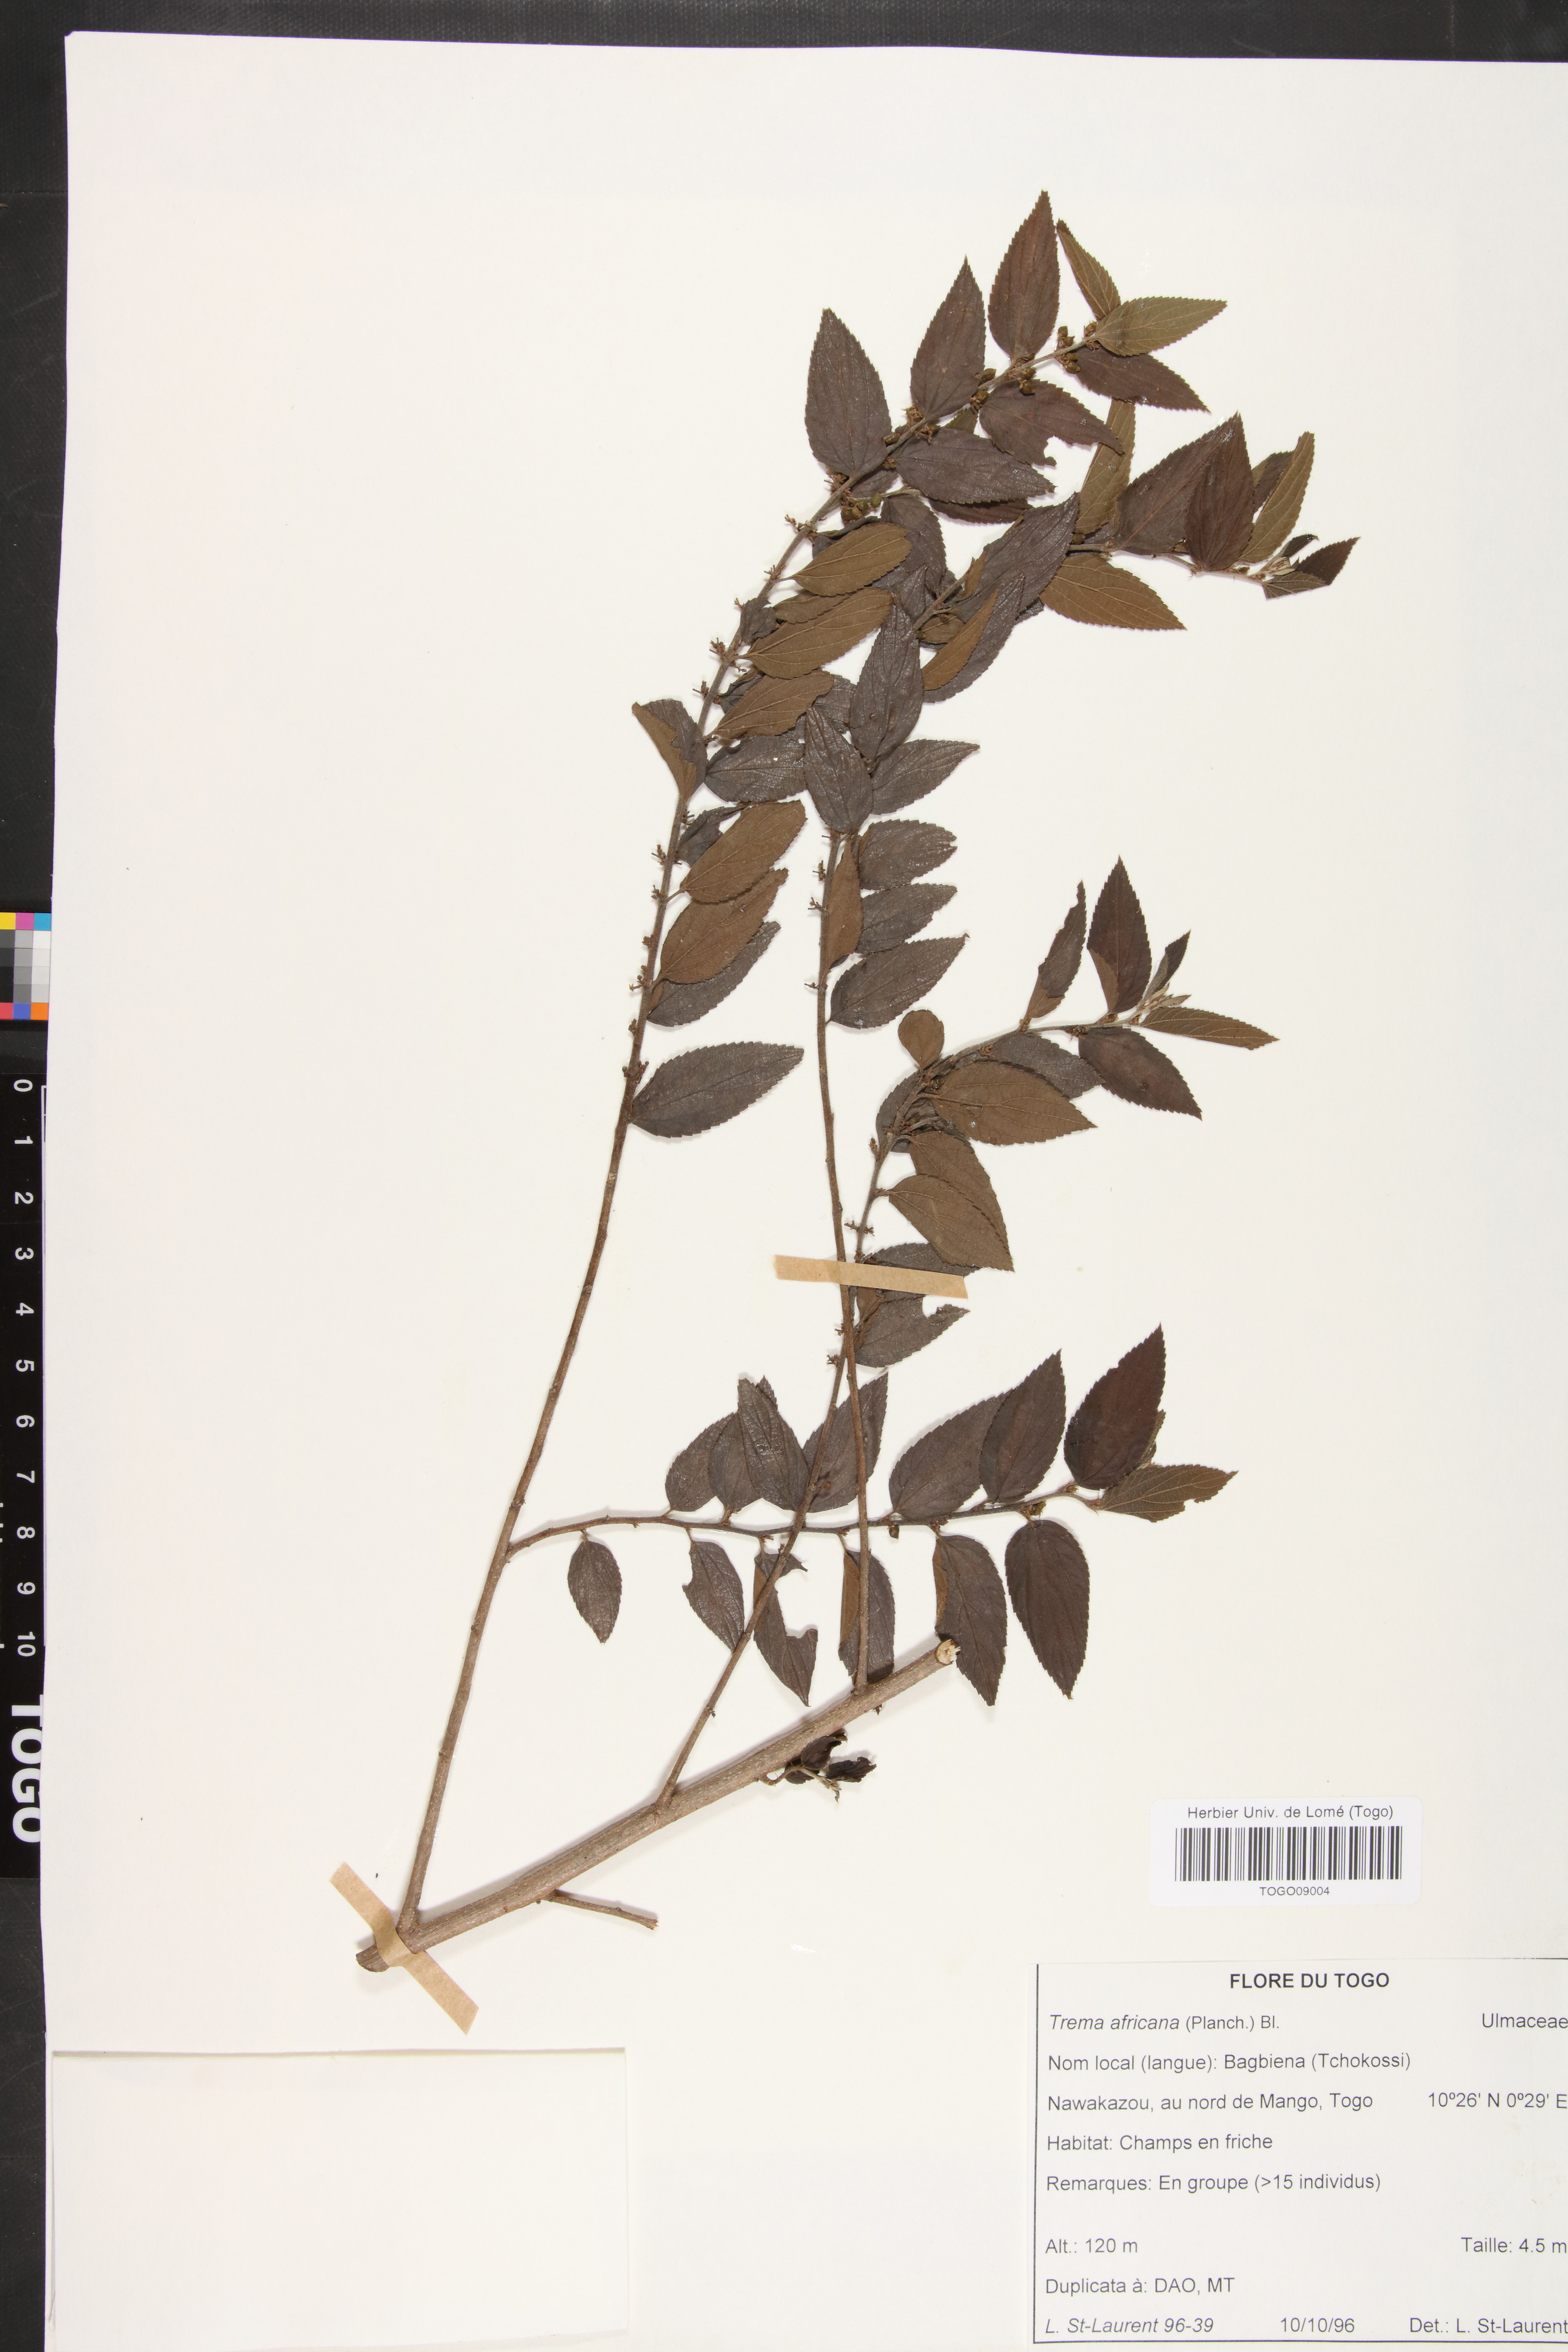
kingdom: Plantae
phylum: Tracheophyta
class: Magnoliopsida
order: Rosales
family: Cannabaceae
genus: Trema
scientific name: Trema orientale
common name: Indian charcoal tree
